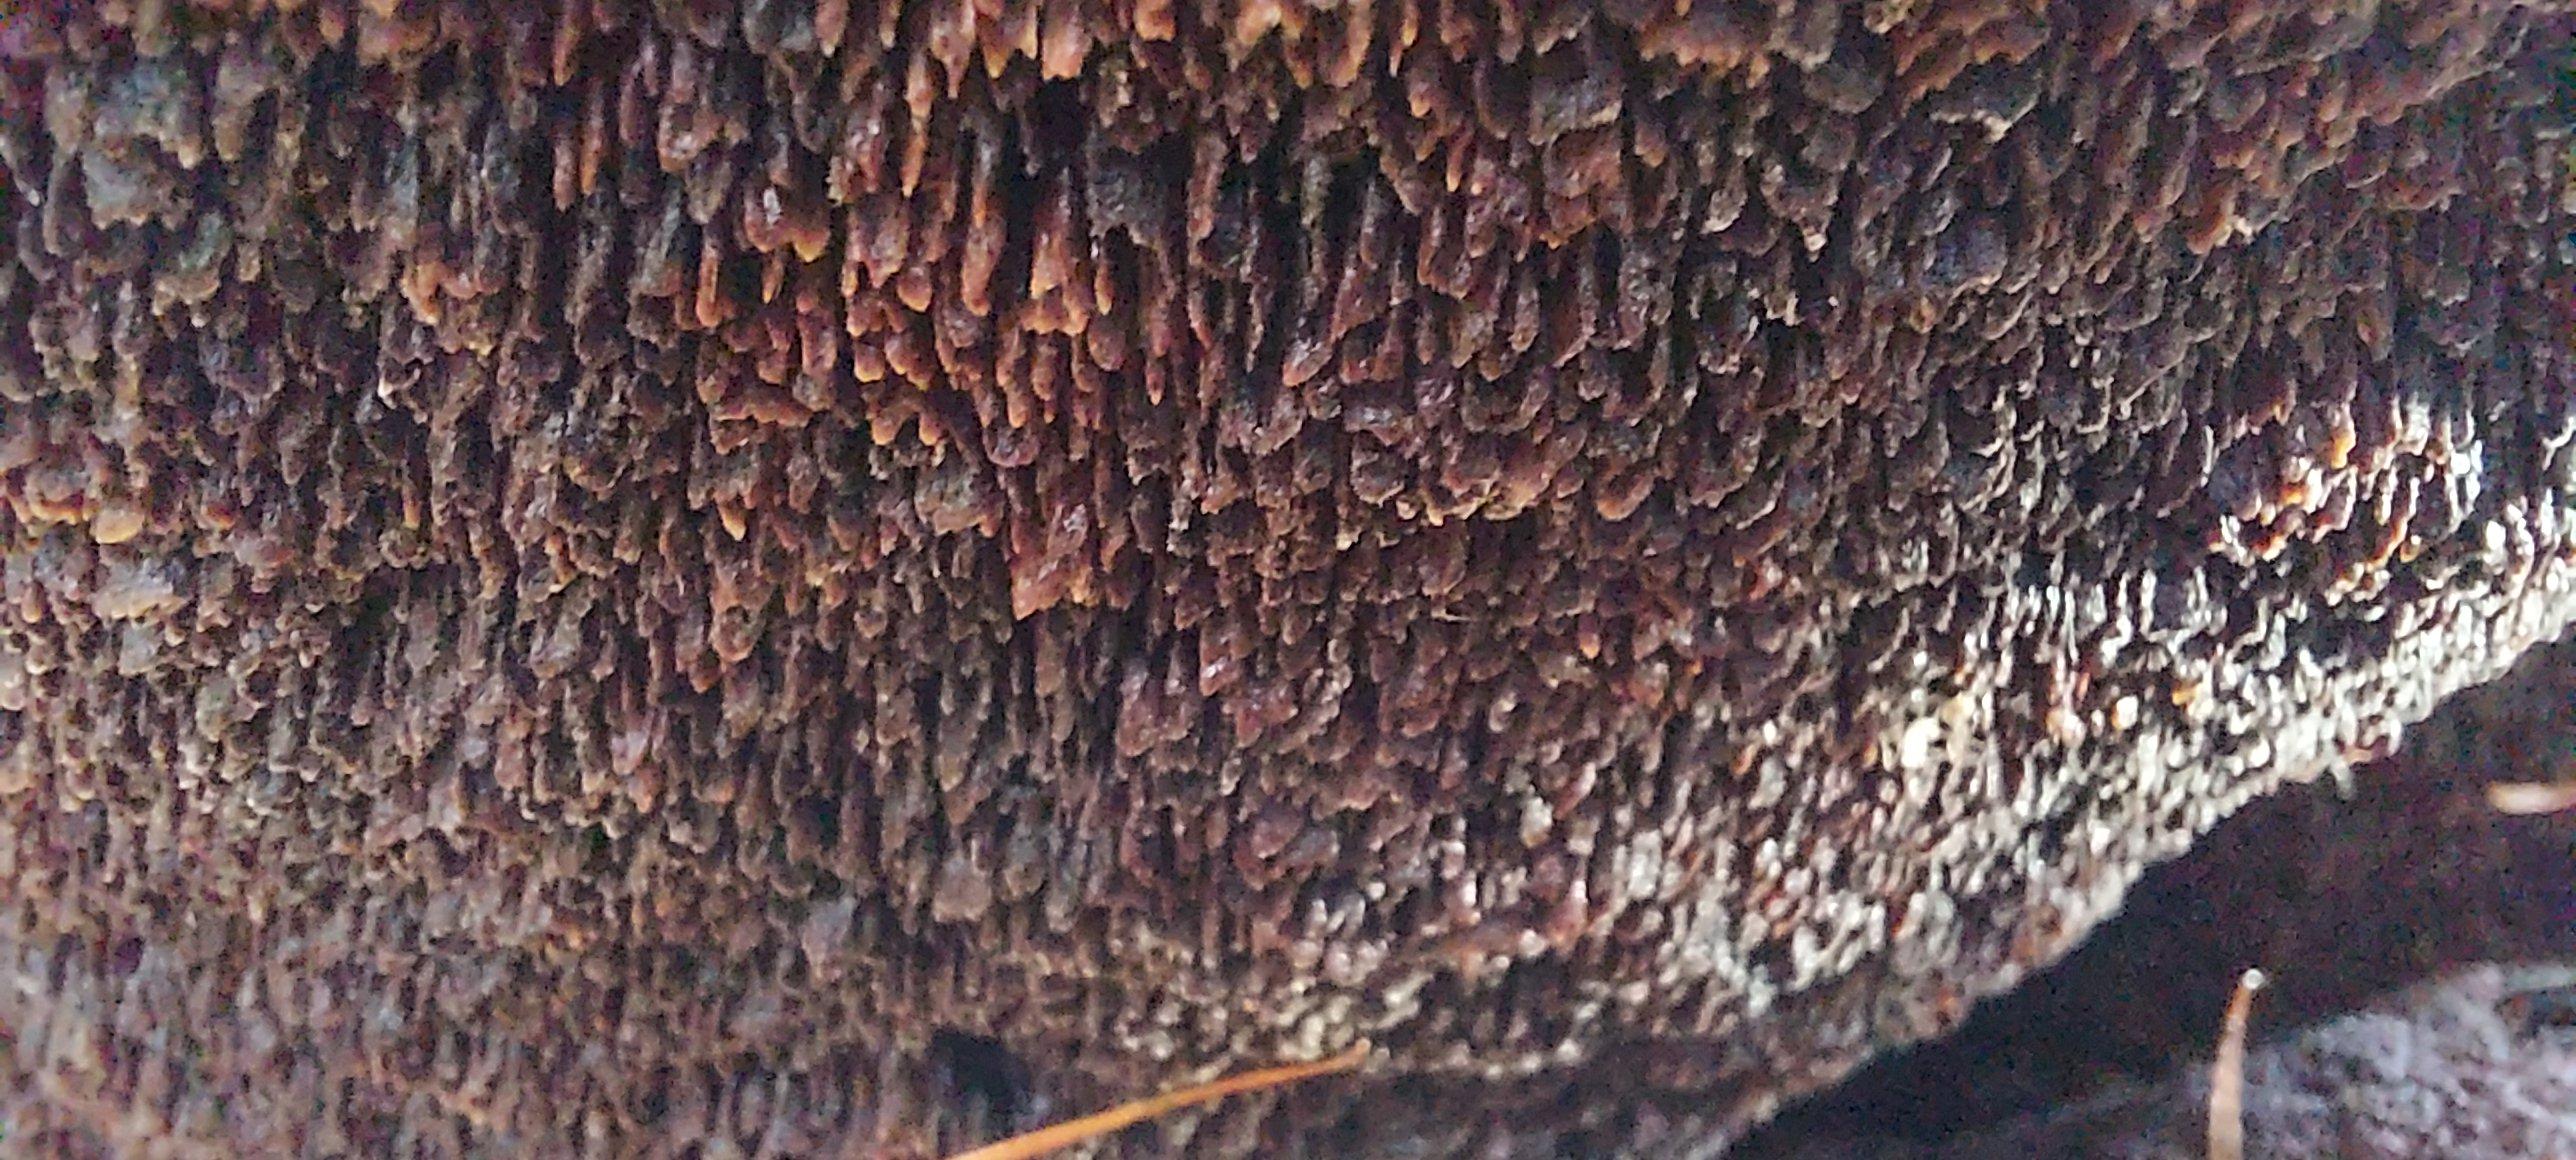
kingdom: Fungi
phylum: Basidiomycota
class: Agaricomycetes
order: Polyporales
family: Laetiporaceae
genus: Phaeolus
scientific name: Phaeolus schweinitzii
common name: brunporesvamp
